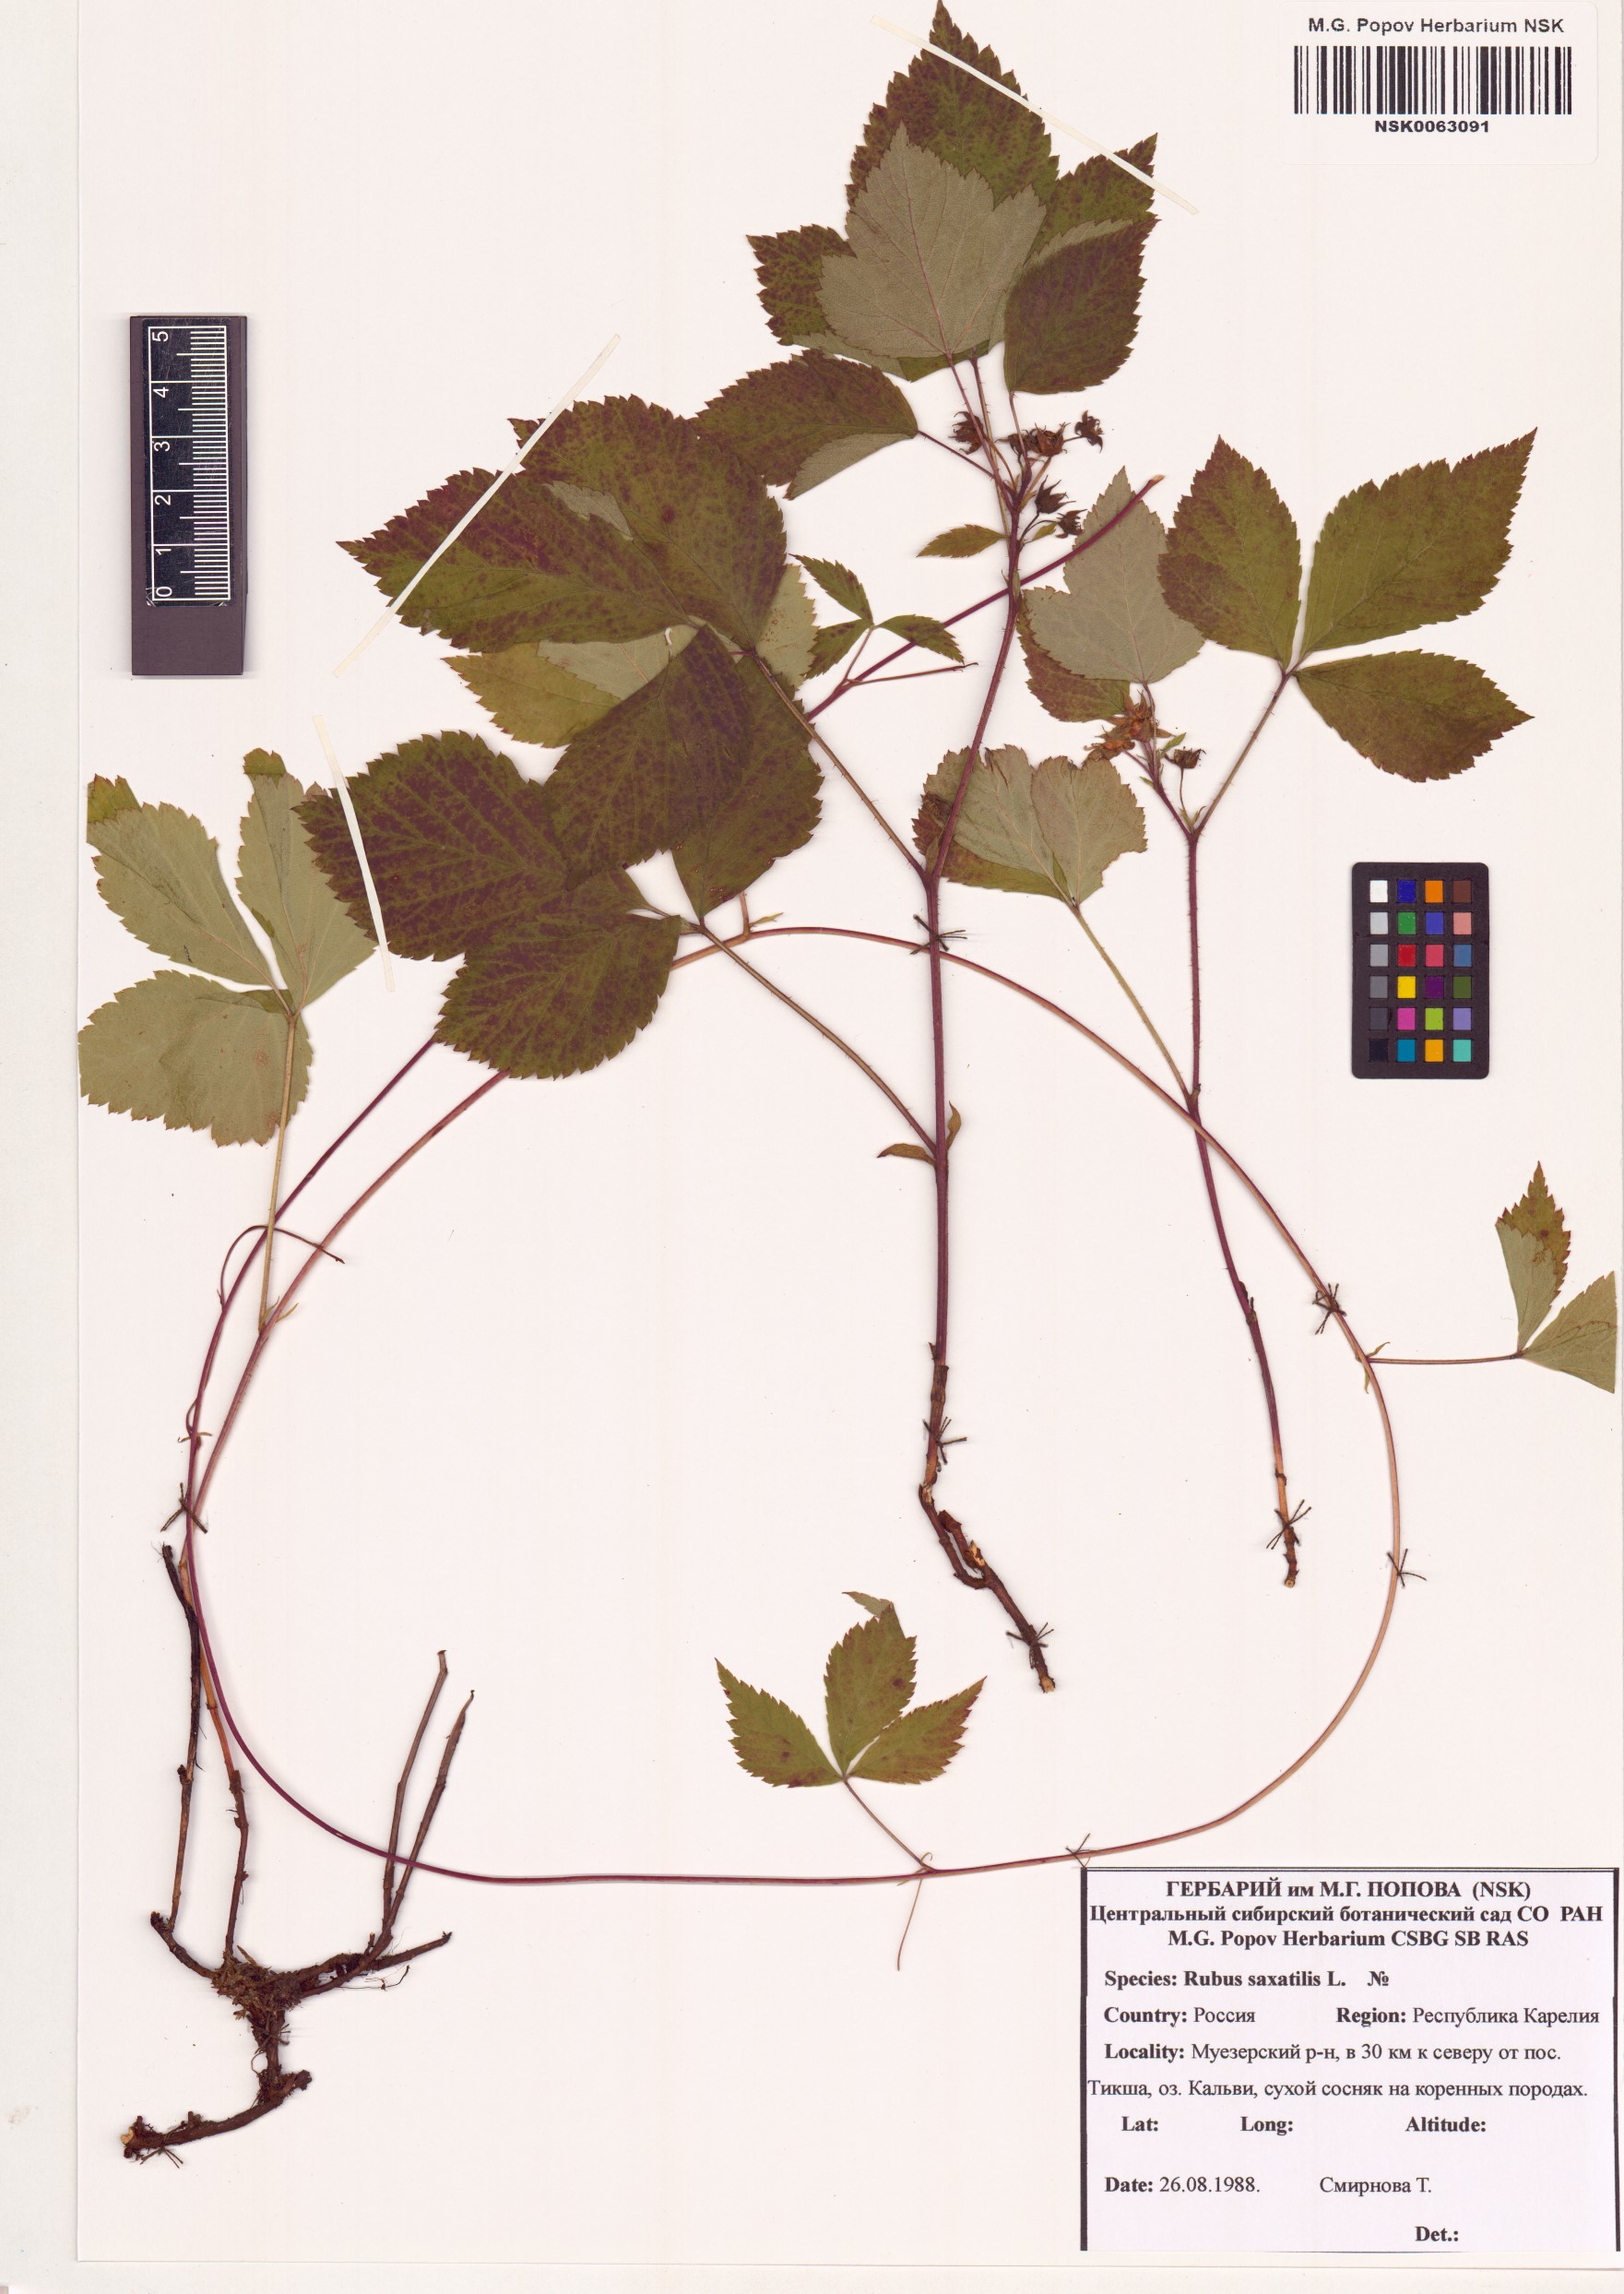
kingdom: Plantae
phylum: Tracheophyta
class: Magnoliopsida
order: Rosales
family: Rosaceae
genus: Rubus
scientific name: Rubus saxatilis
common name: Stone bramble
